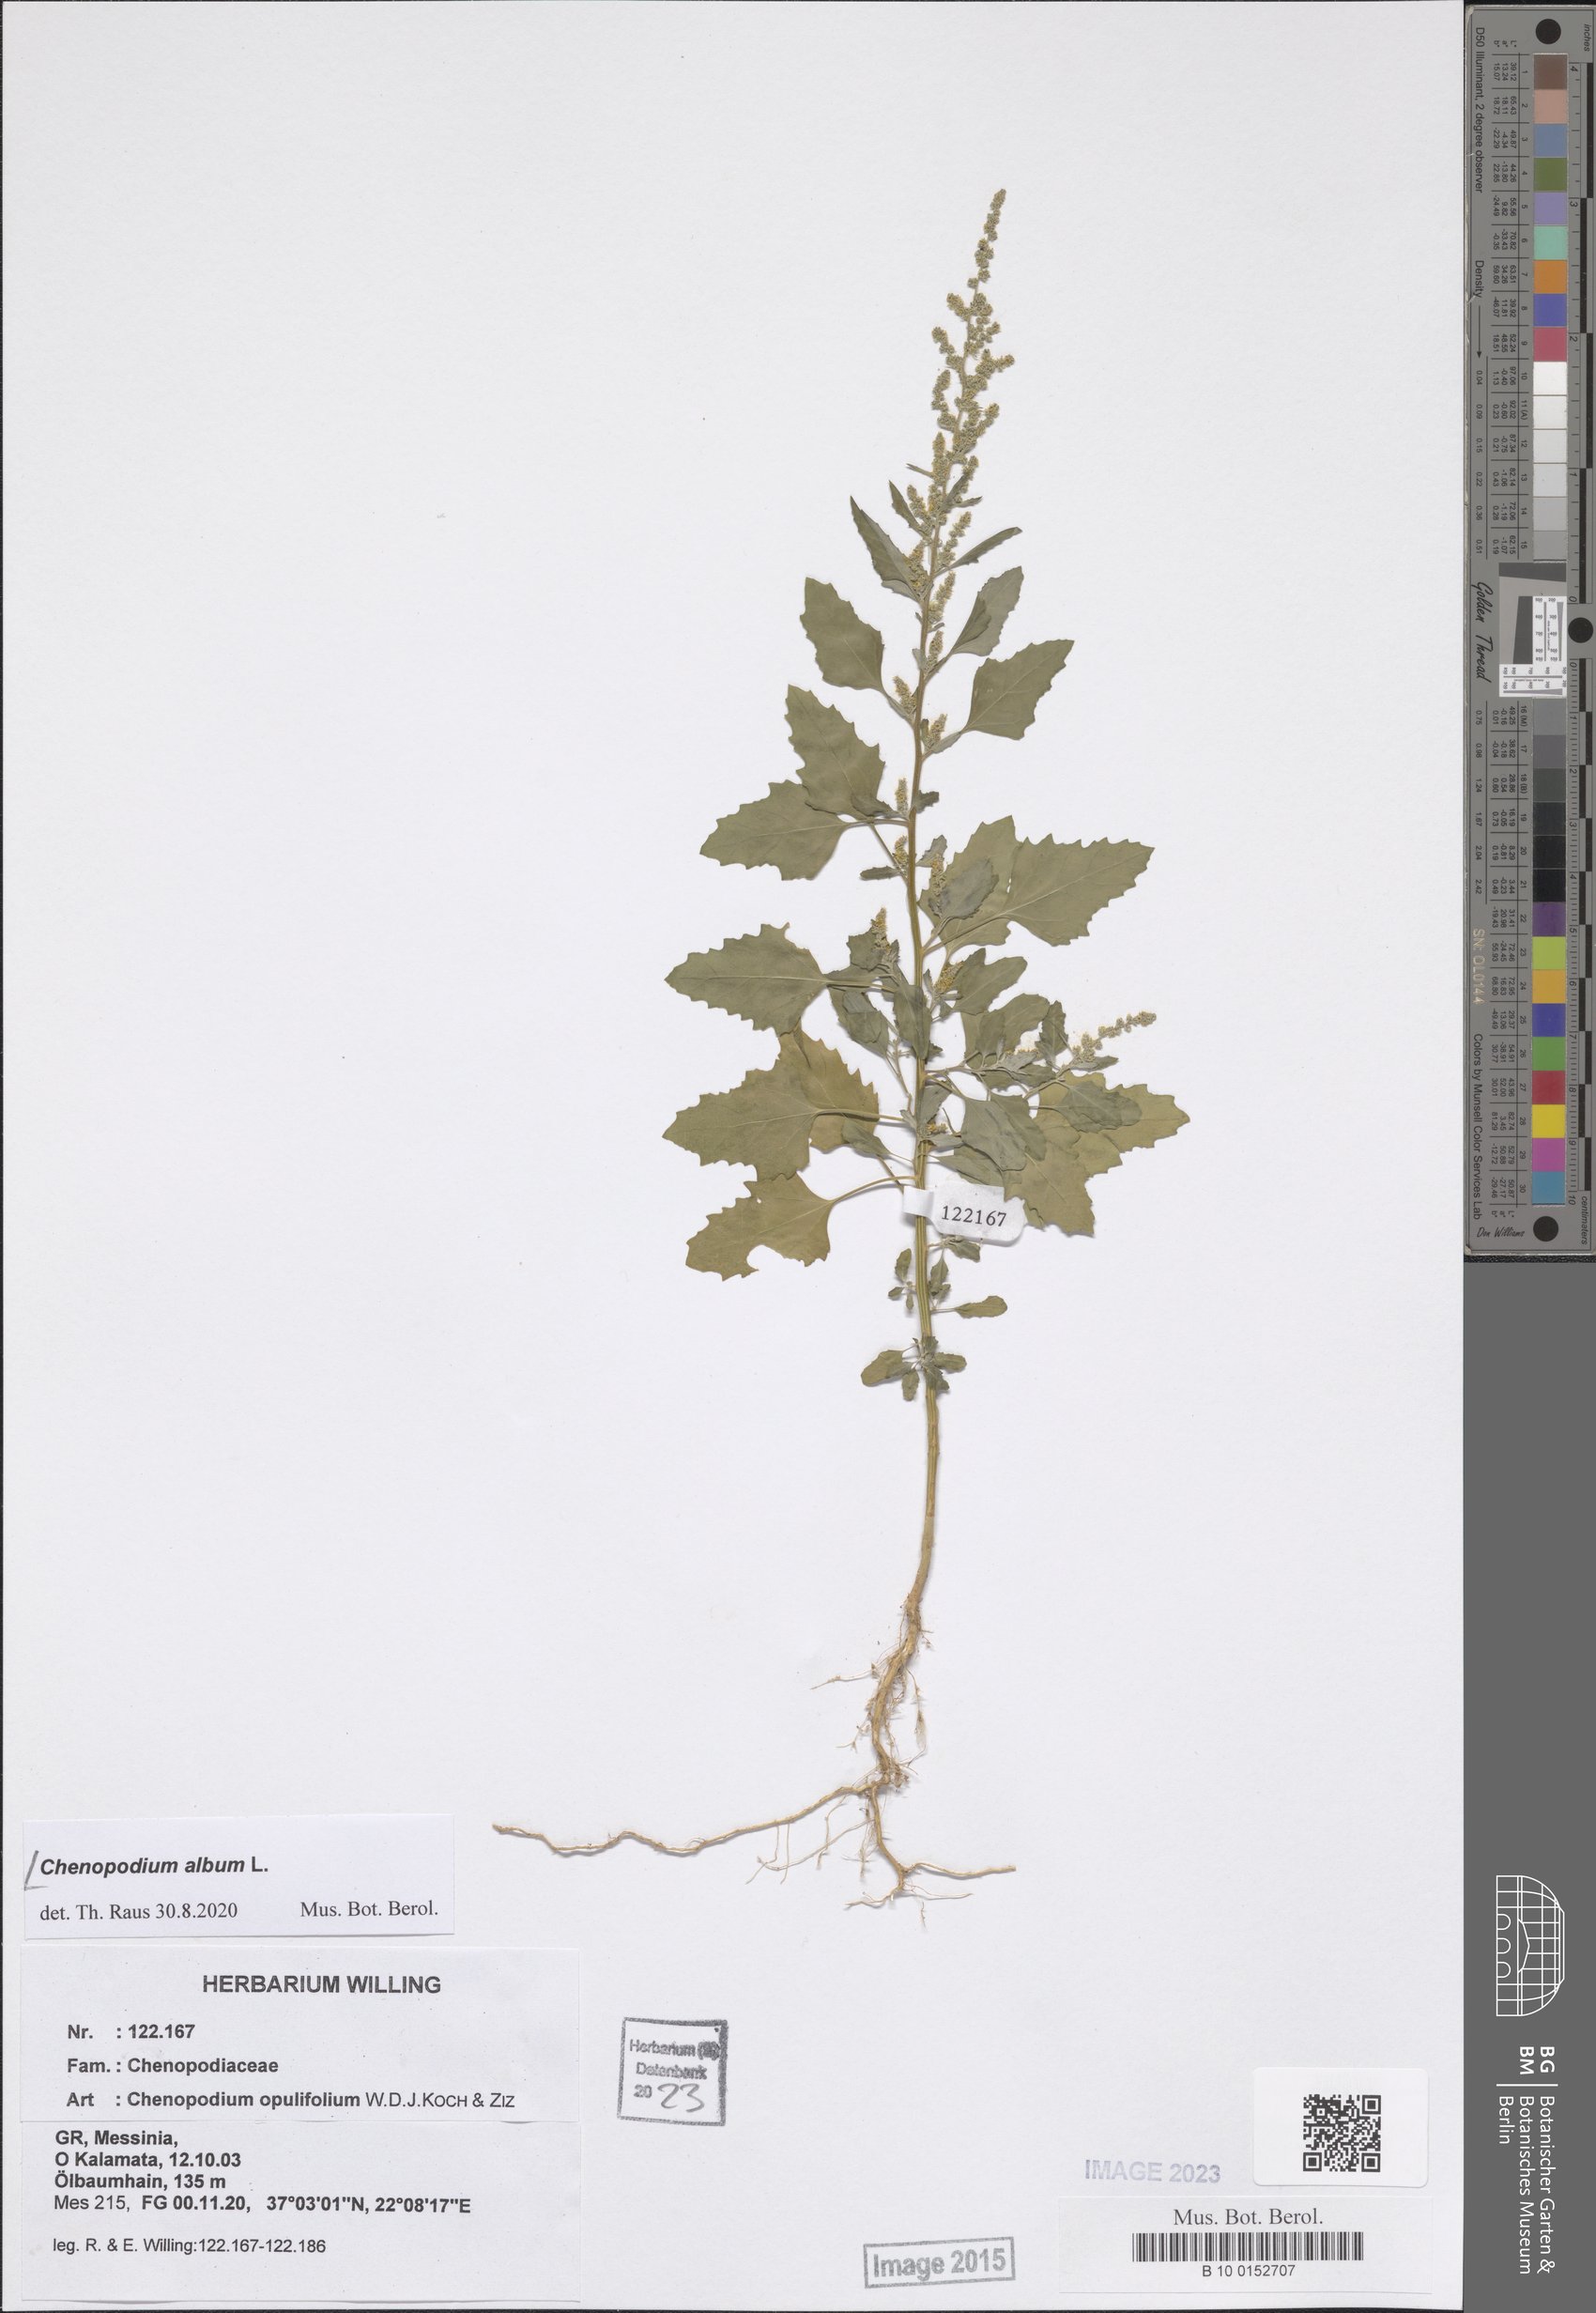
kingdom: Plantae
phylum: Tracheophyta
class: Magnoliopsida
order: Caryophyllales
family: Amaranthaceae
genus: Chenopodium
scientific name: Chenopodium album
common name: Fat-hen
